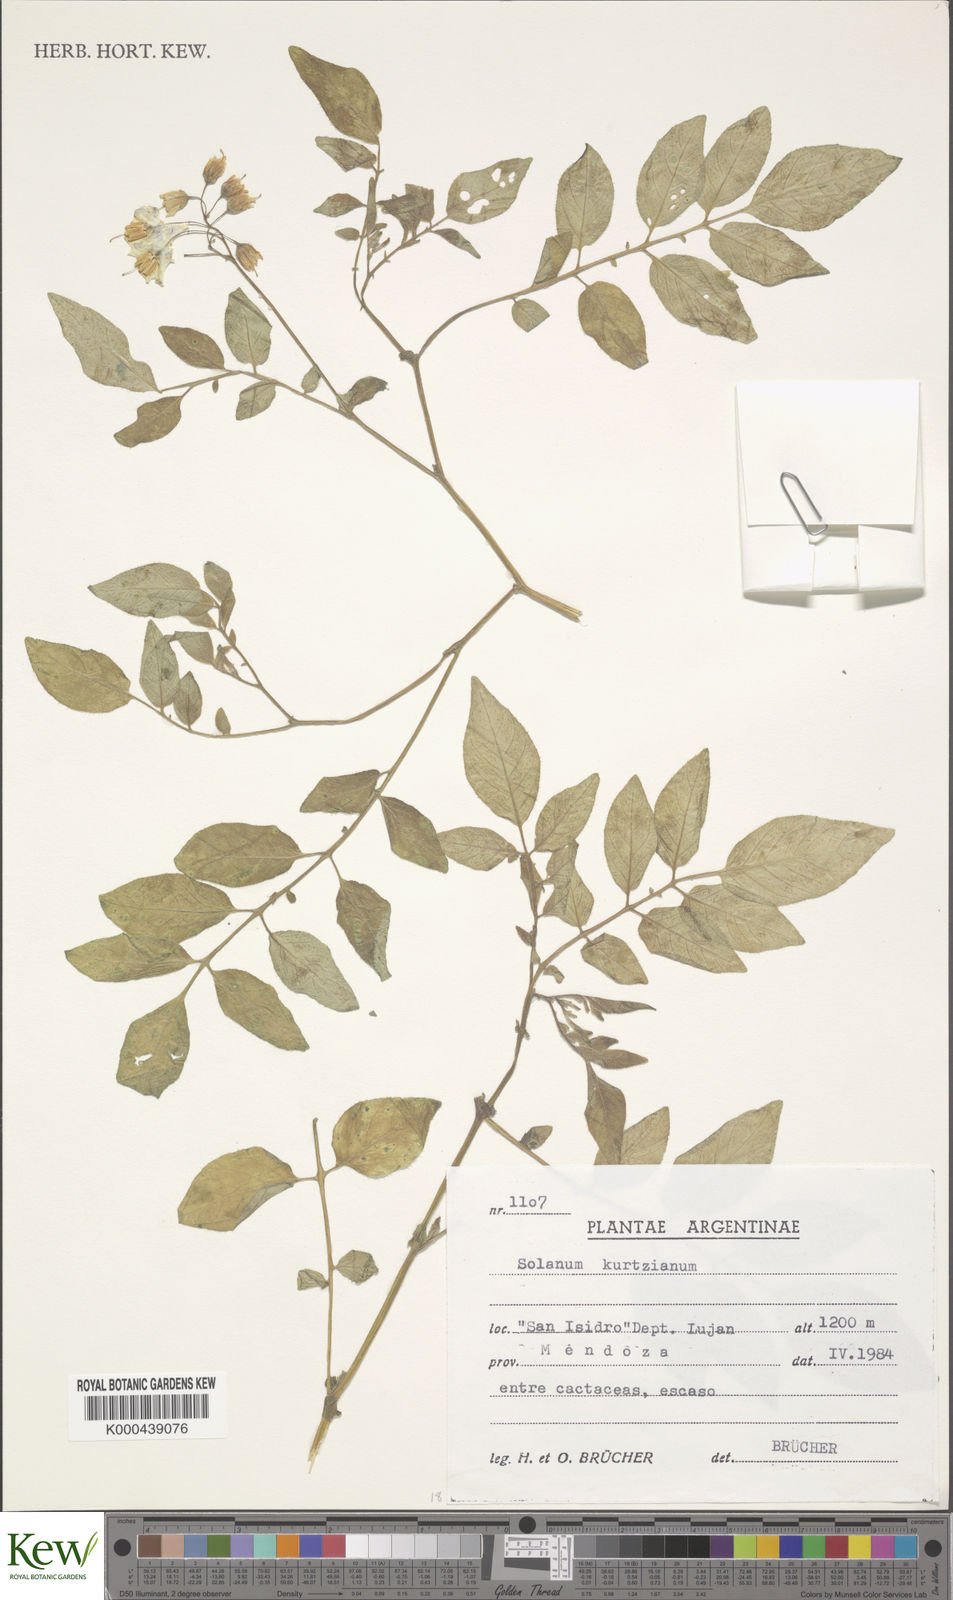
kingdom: Plantae
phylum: Tracheophyta
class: Magnoliopsida
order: Solanales
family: Solanaceae
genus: Solanum
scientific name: Solanum kurtzianum
